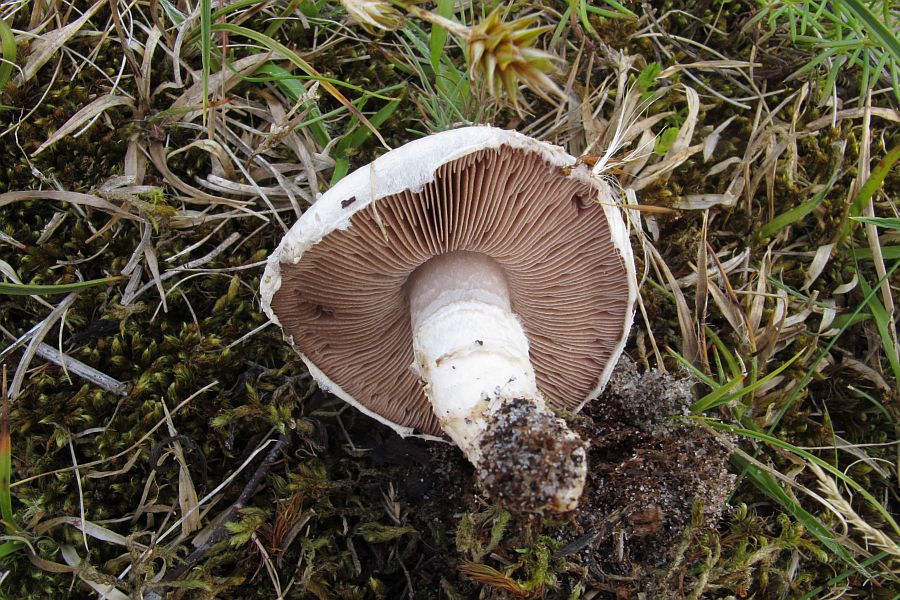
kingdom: Fungi
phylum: Basidiomycota
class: Agaricomycetes
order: Agaricales
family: Agaricaceae
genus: Agaricus
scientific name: Agaricus litoralis
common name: kyst-champignon
